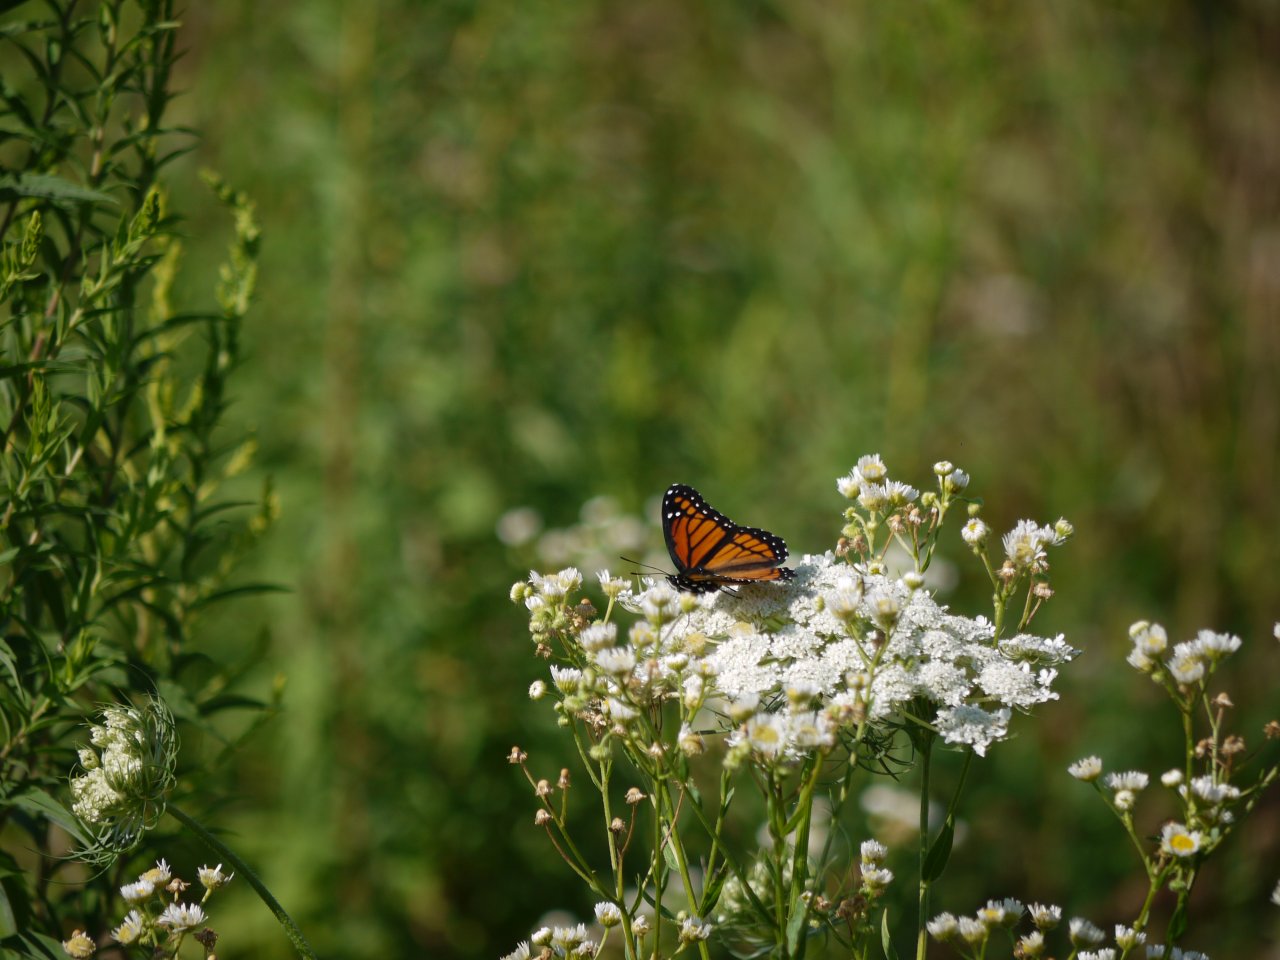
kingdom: Animalia
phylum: Arthropoda
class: Insecta
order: Lepidoptera
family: Nymphalidae
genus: Limenitis
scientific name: Limenitis archippus
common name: Viceroy
